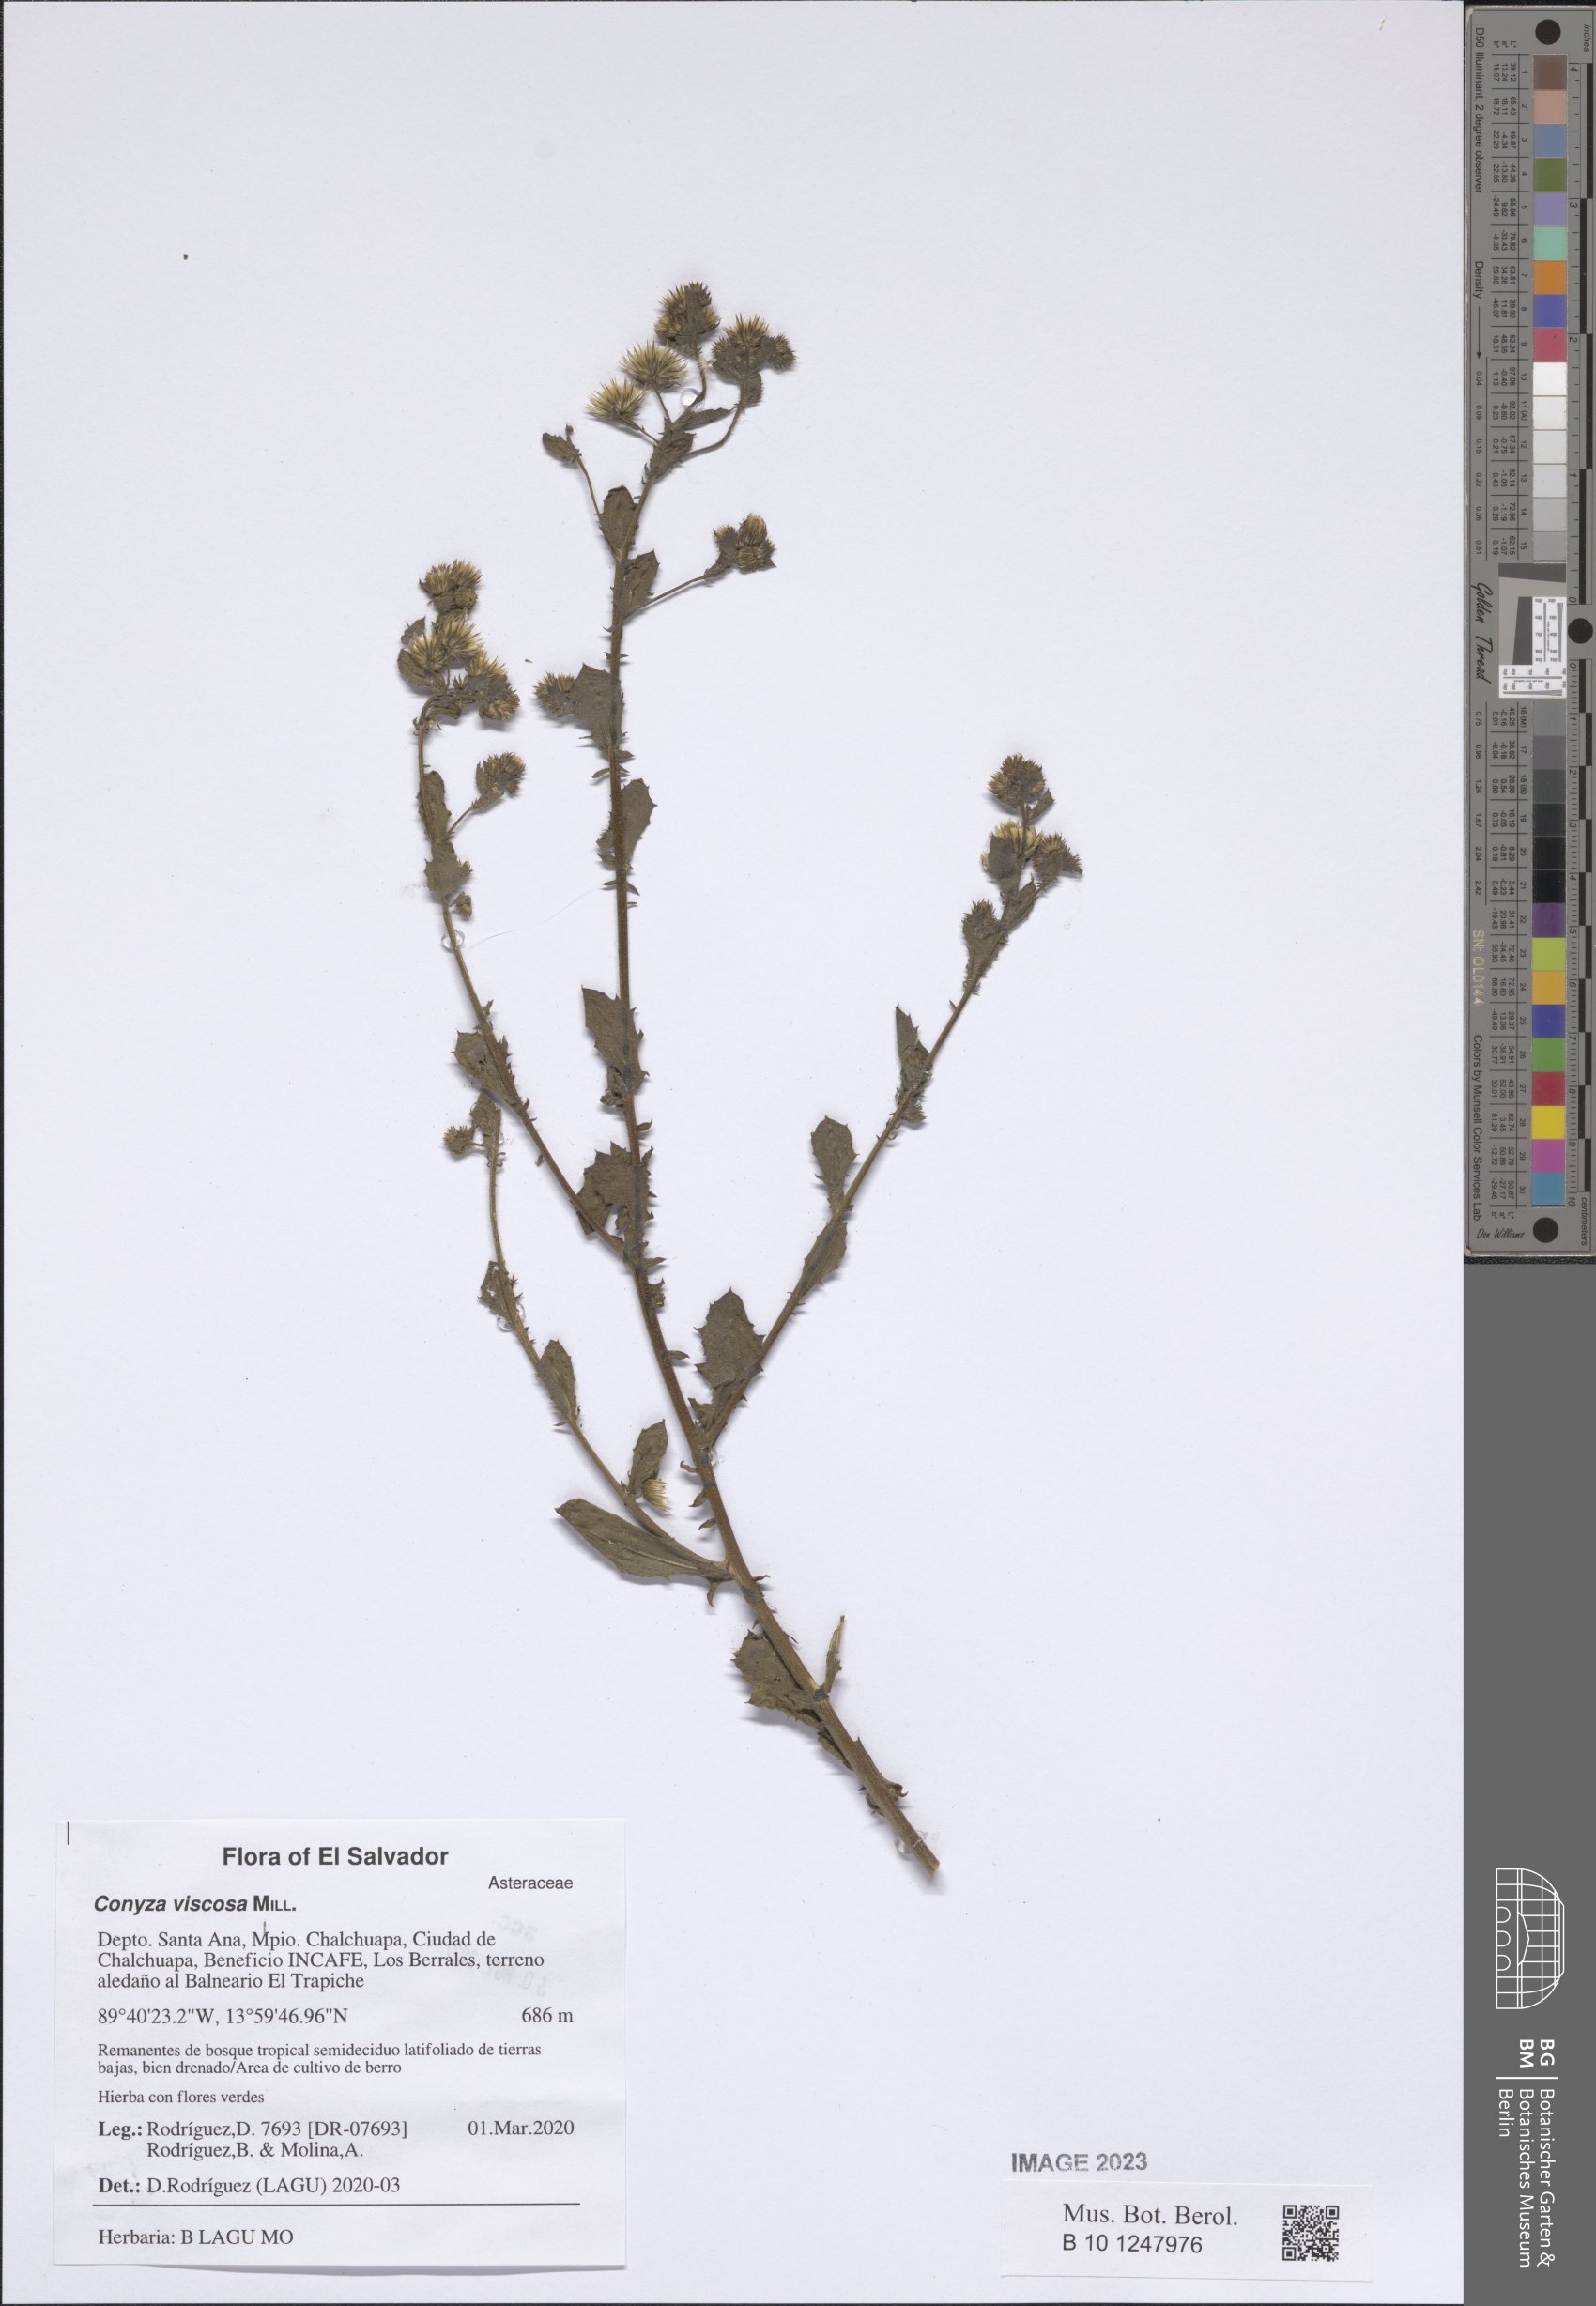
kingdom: Plantae
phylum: Tracheophyta
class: Magnoliopsida
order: Asterales
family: Asteraceae
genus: Pseudoconyza
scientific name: Pseudoconyza viscosa
